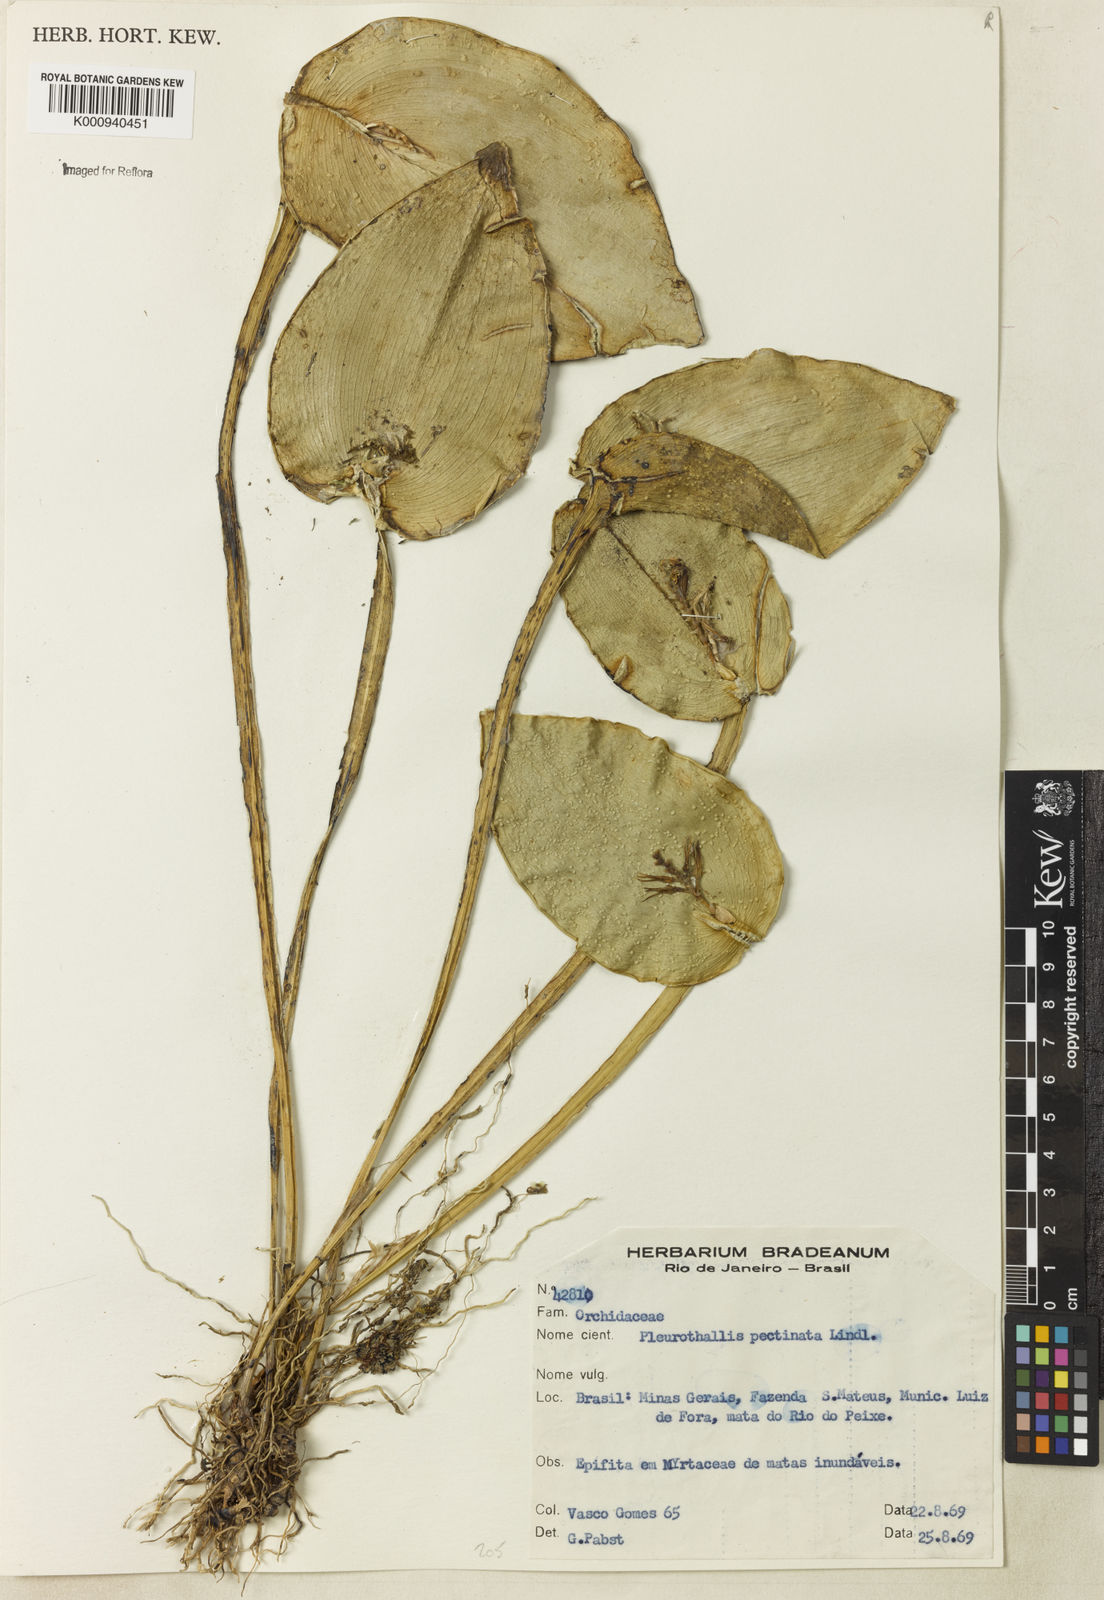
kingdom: Plantae
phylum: Tracheophyta
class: Liliopsida
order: Asparagales
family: Orchidaceae
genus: Acianthera
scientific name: Acianthera pectinata
